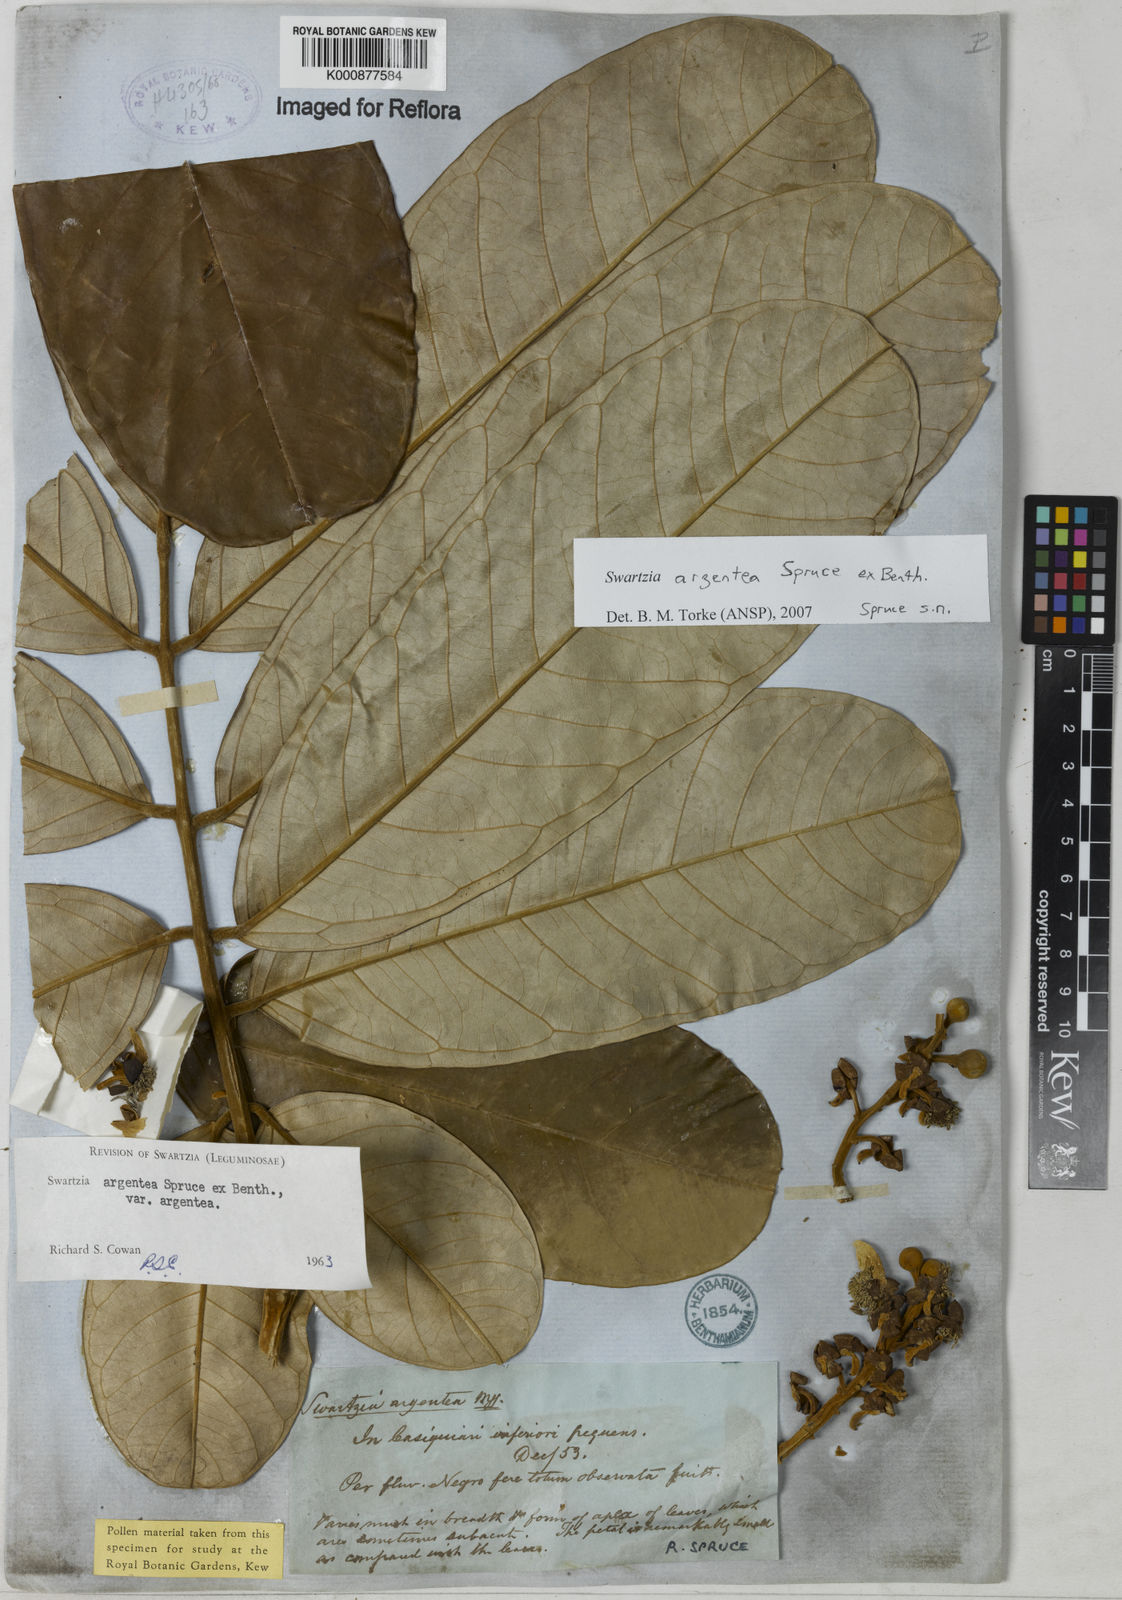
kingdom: Plantae
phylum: Tracheophyta
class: Magnoliopsida
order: Fabales
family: Fabaceae
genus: Swartzia
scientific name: Swartzia argentea
